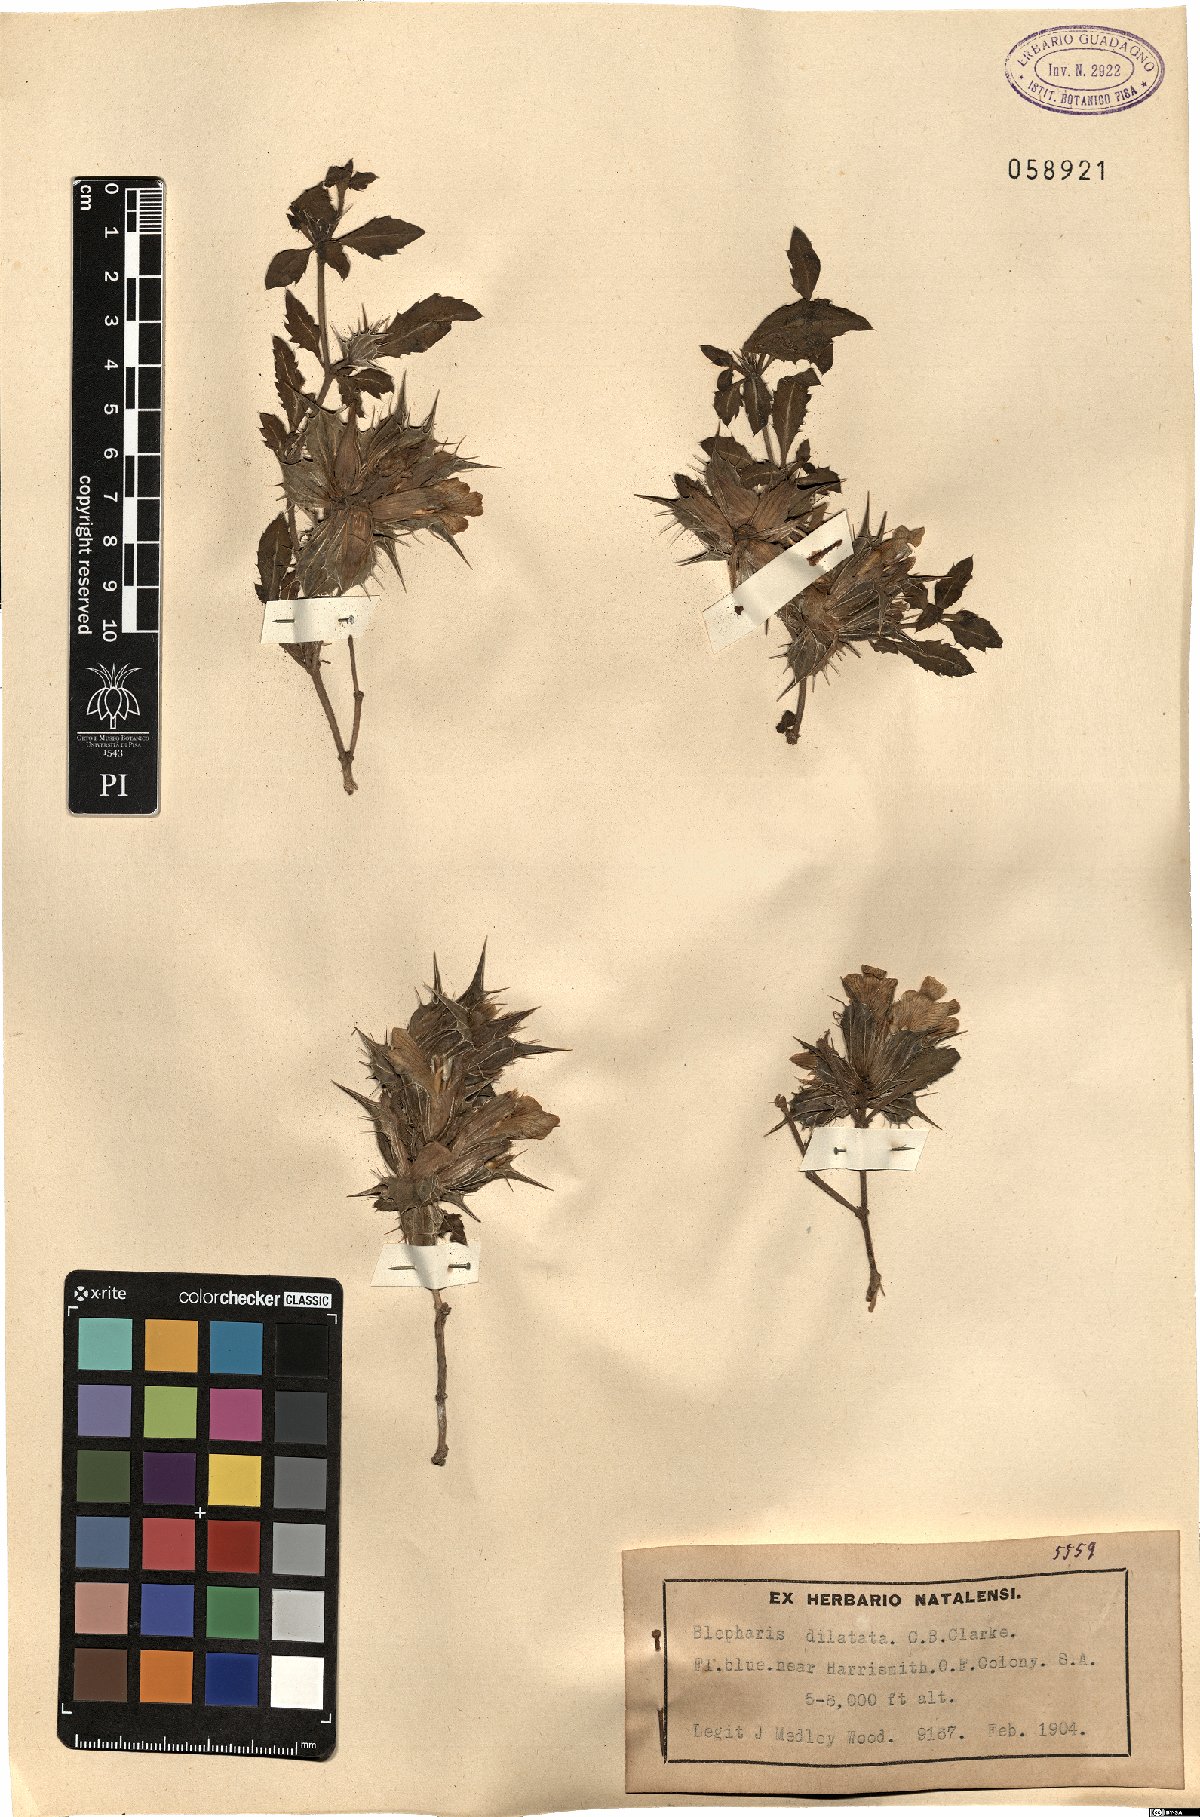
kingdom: Plantae
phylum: Tracheophyta
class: Magnoliopsida
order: Lamiales
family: Acanthaceae
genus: Blepharis
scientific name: Blepharis dilatata
